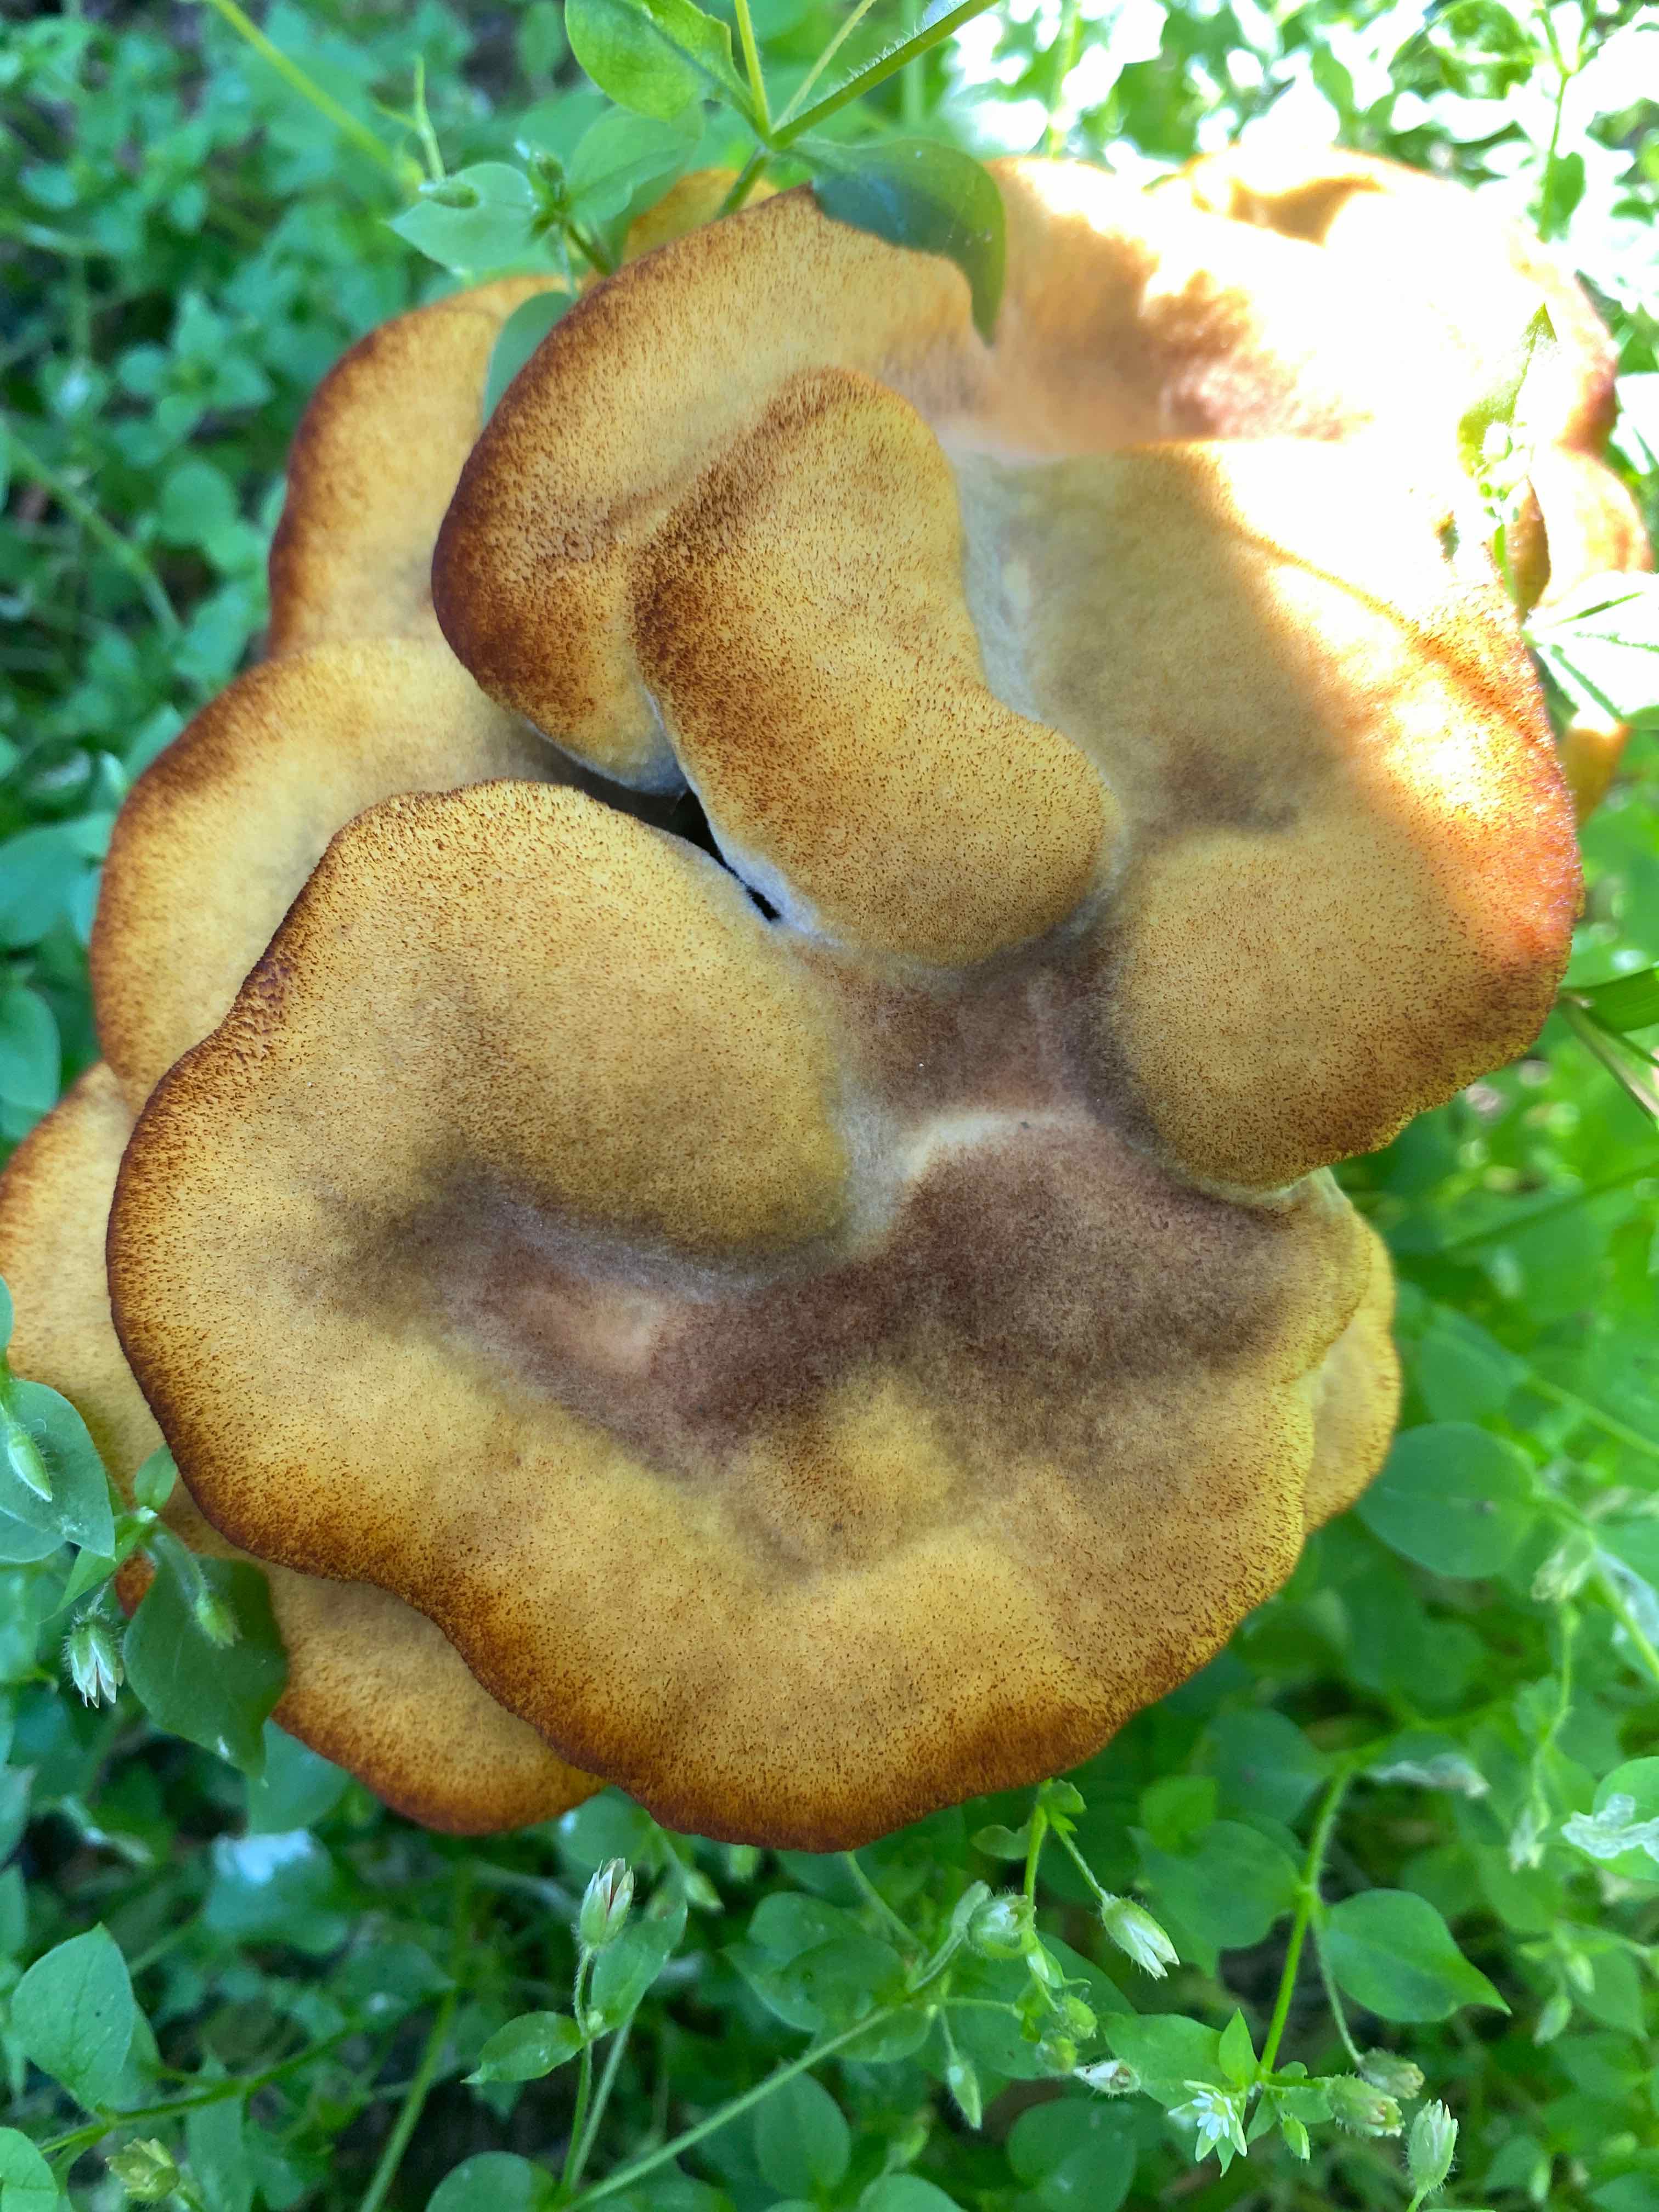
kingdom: Fungi
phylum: Basidiomycota
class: Agaricomycetes
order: Polyporales
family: Laetiporaceae
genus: Phaeolus
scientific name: Phaeolus schweinitzii
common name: brunporesvamp
